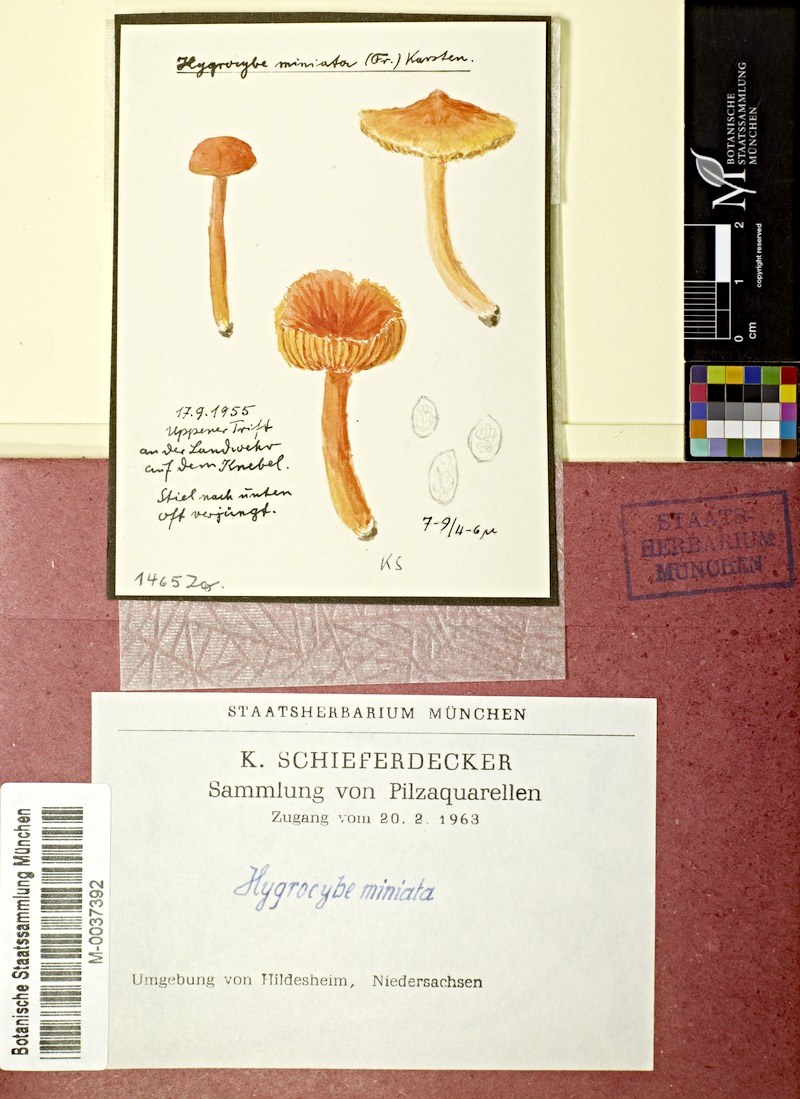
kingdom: Fungi
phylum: Basidiomycota
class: Agaricomycetes
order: Agaricales
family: Hygrophoraceae
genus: Hygrocybe
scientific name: Hygrocybe miniata
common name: Vermilion waxcap
